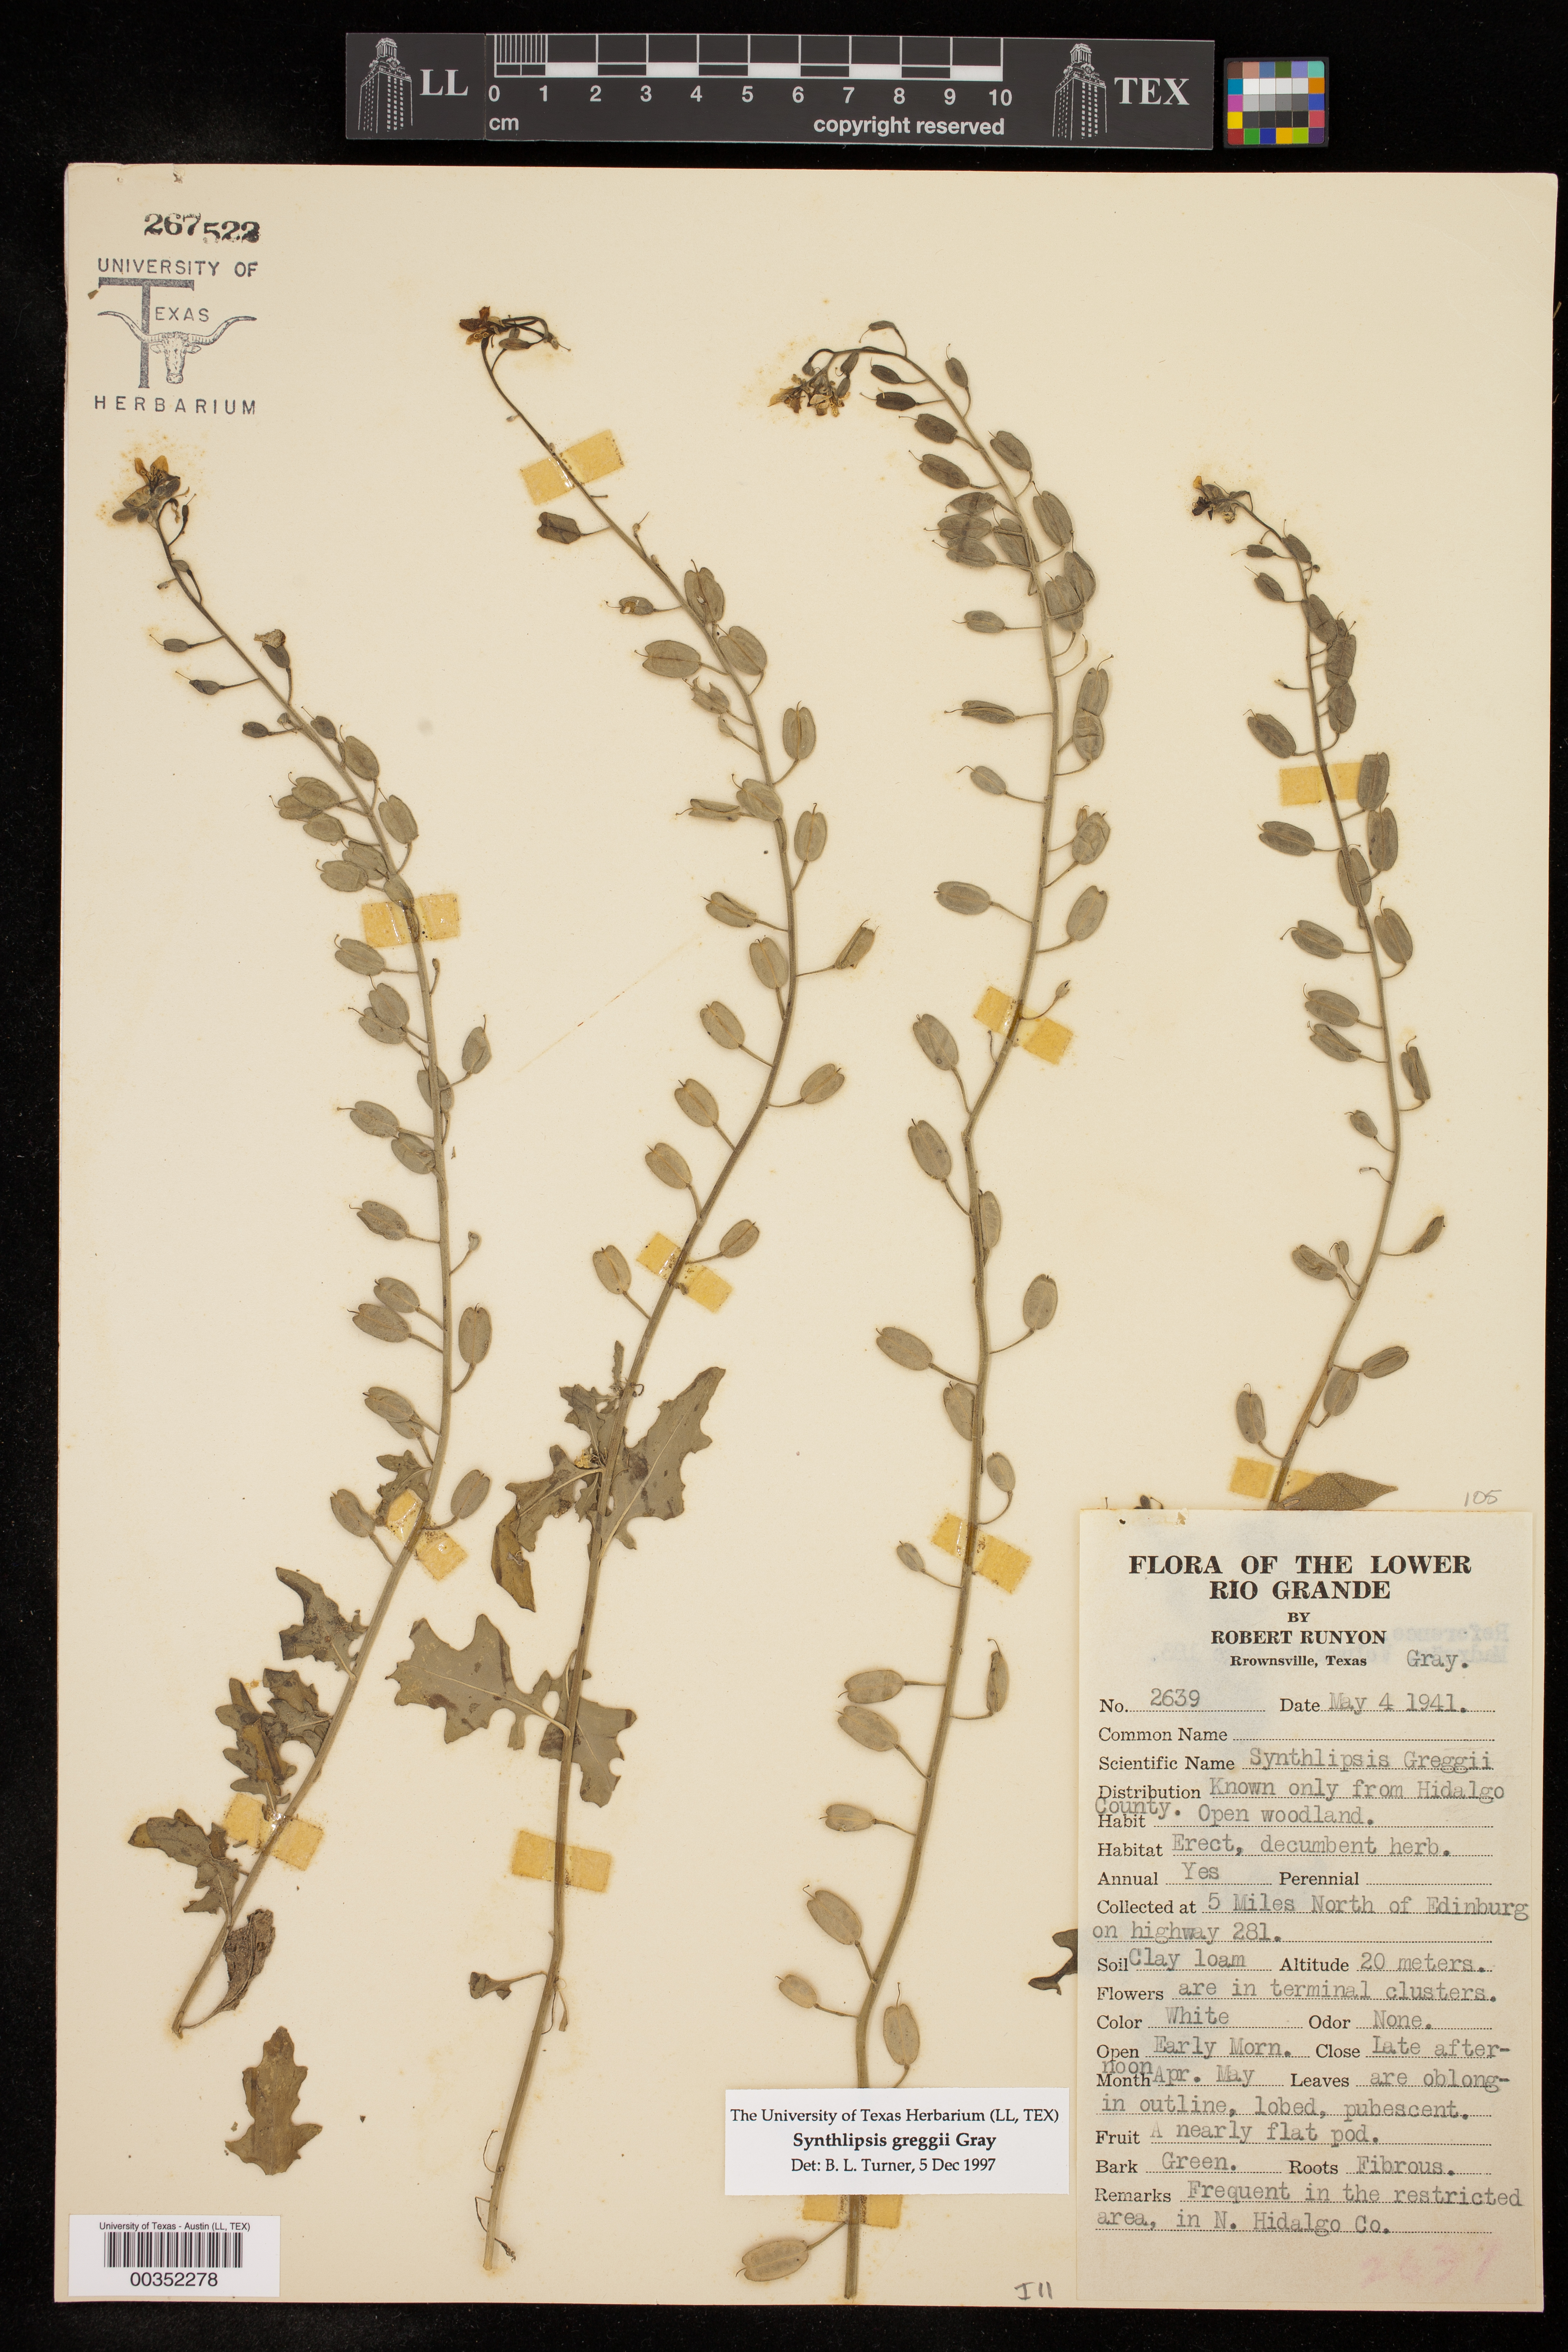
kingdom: Plantae
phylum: Tracheophyta
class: Magnoliopsida
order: Brassicales
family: Brassicaceae
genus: Synthlipsis
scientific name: Synthlipsis greggii
